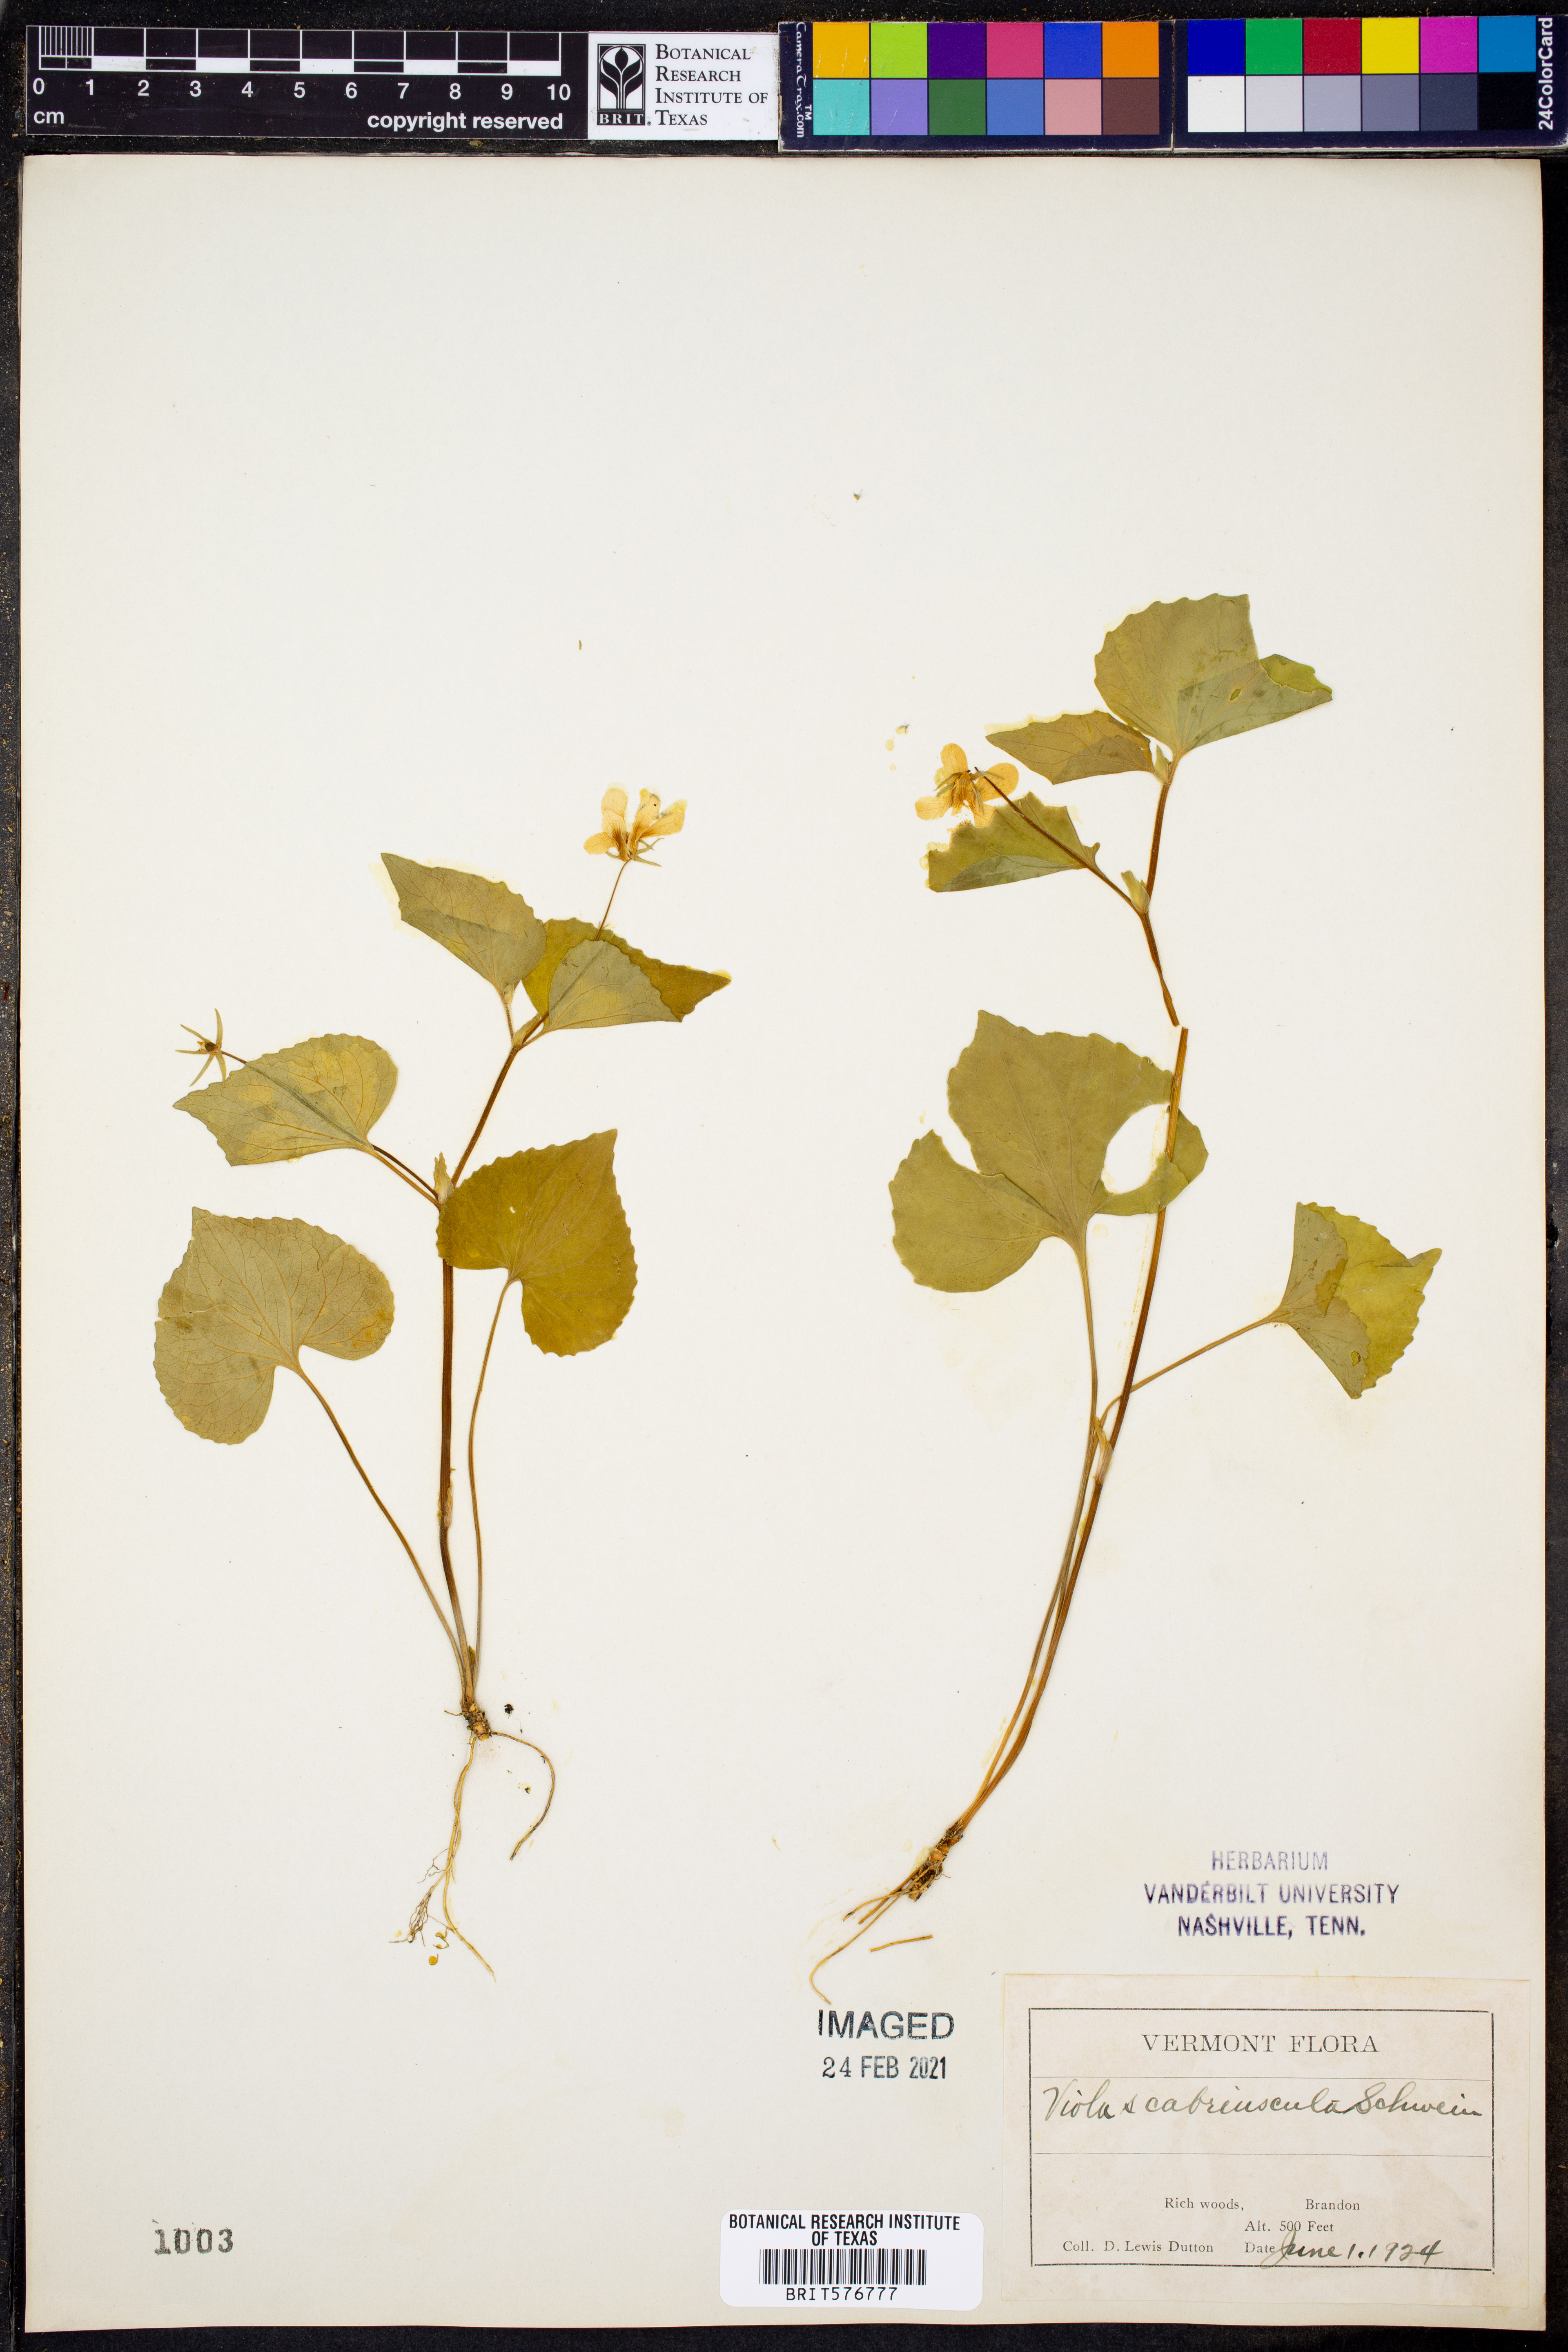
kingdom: Plantae
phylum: Tracheophyta
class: Magnoliopsida
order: Malpighiales
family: Violaceae
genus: Viola
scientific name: Viola eriocarpa
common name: Smooth yellow violet
